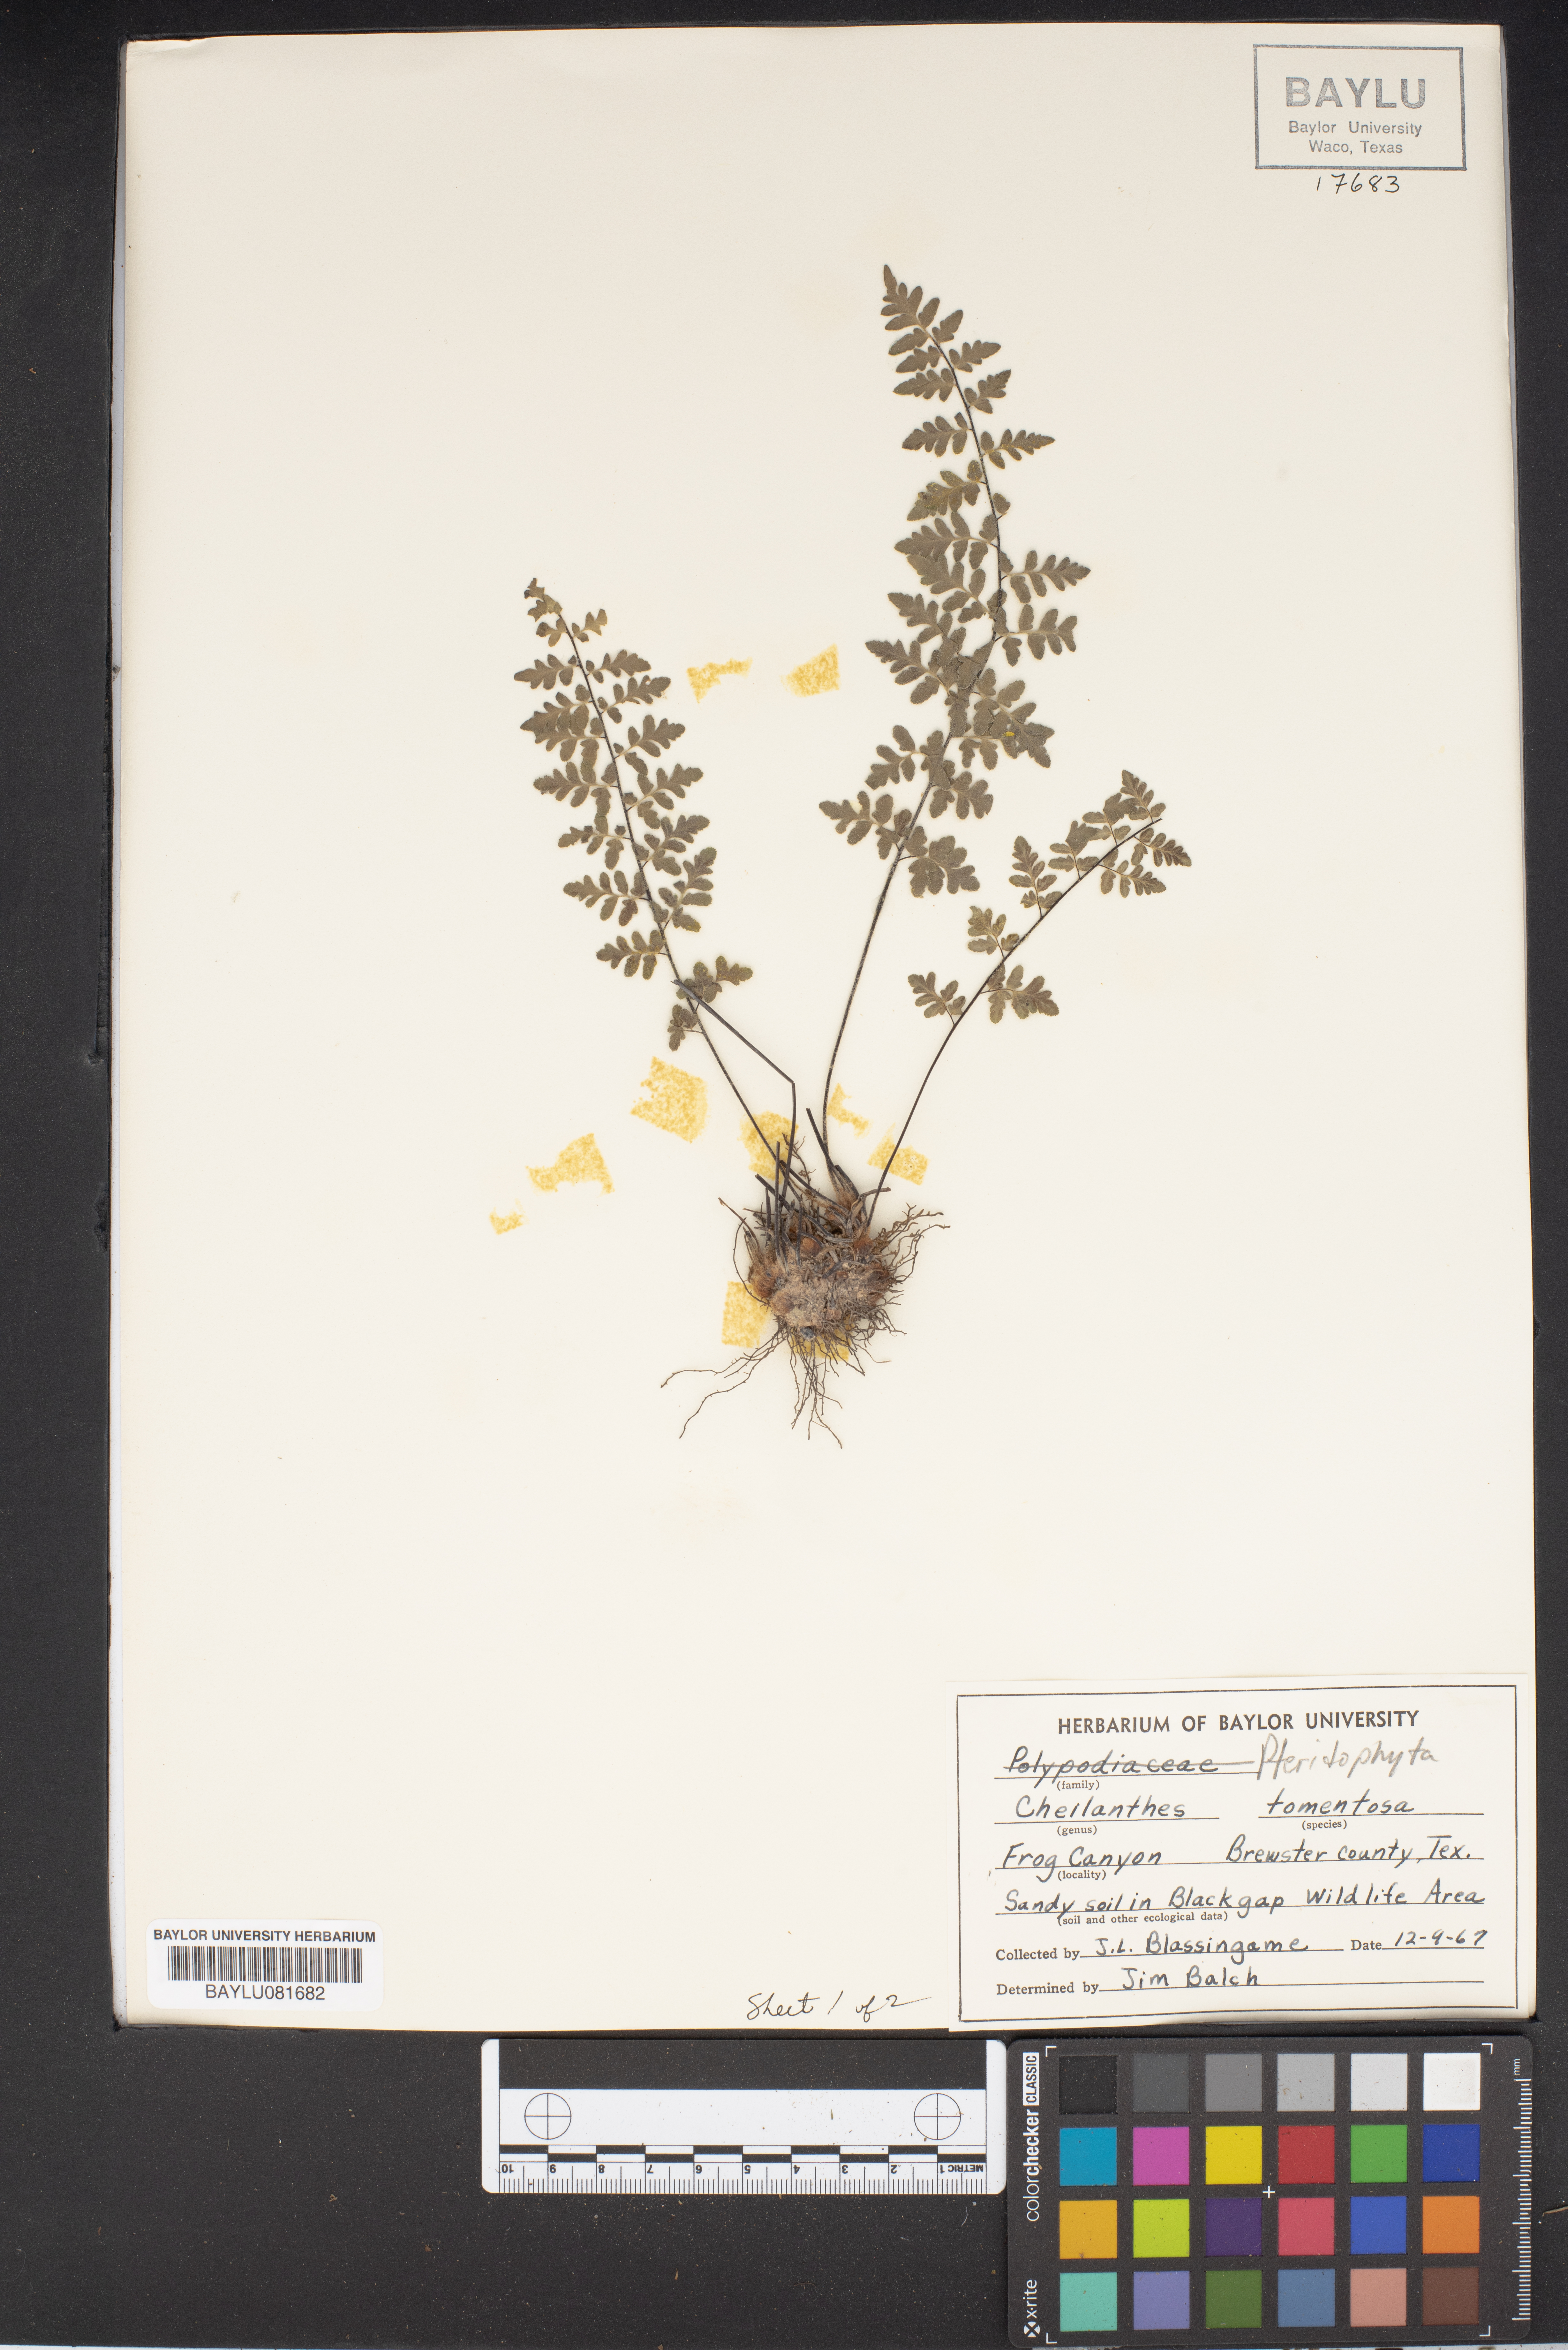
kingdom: Plantae
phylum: Tracheophyta
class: Polypodiopsida
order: Polypodiales
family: Pteridaceae
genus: Myriopteris
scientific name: Myriopteris tomentosa
